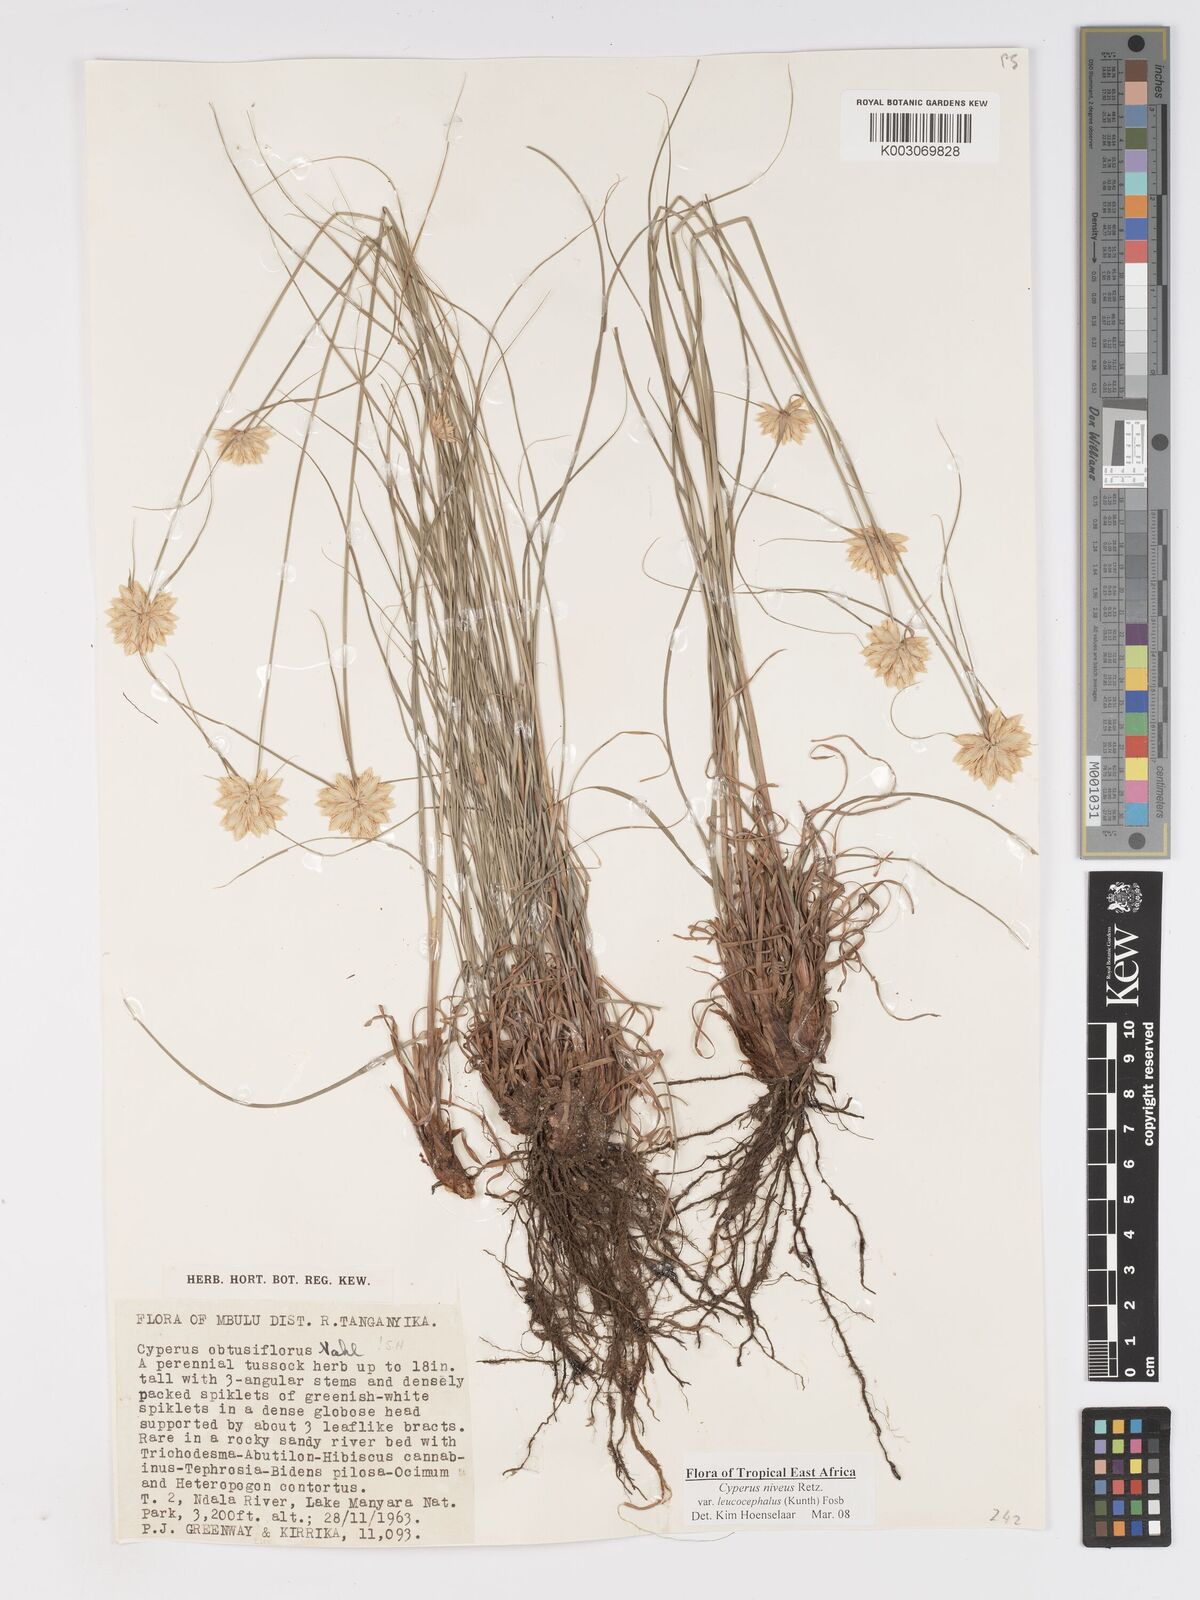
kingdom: Plantae
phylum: Tracheophyta
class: Liliopsida
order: Poales
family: Cyperaceae
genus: Cyperus
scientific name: Cyperus niveus
